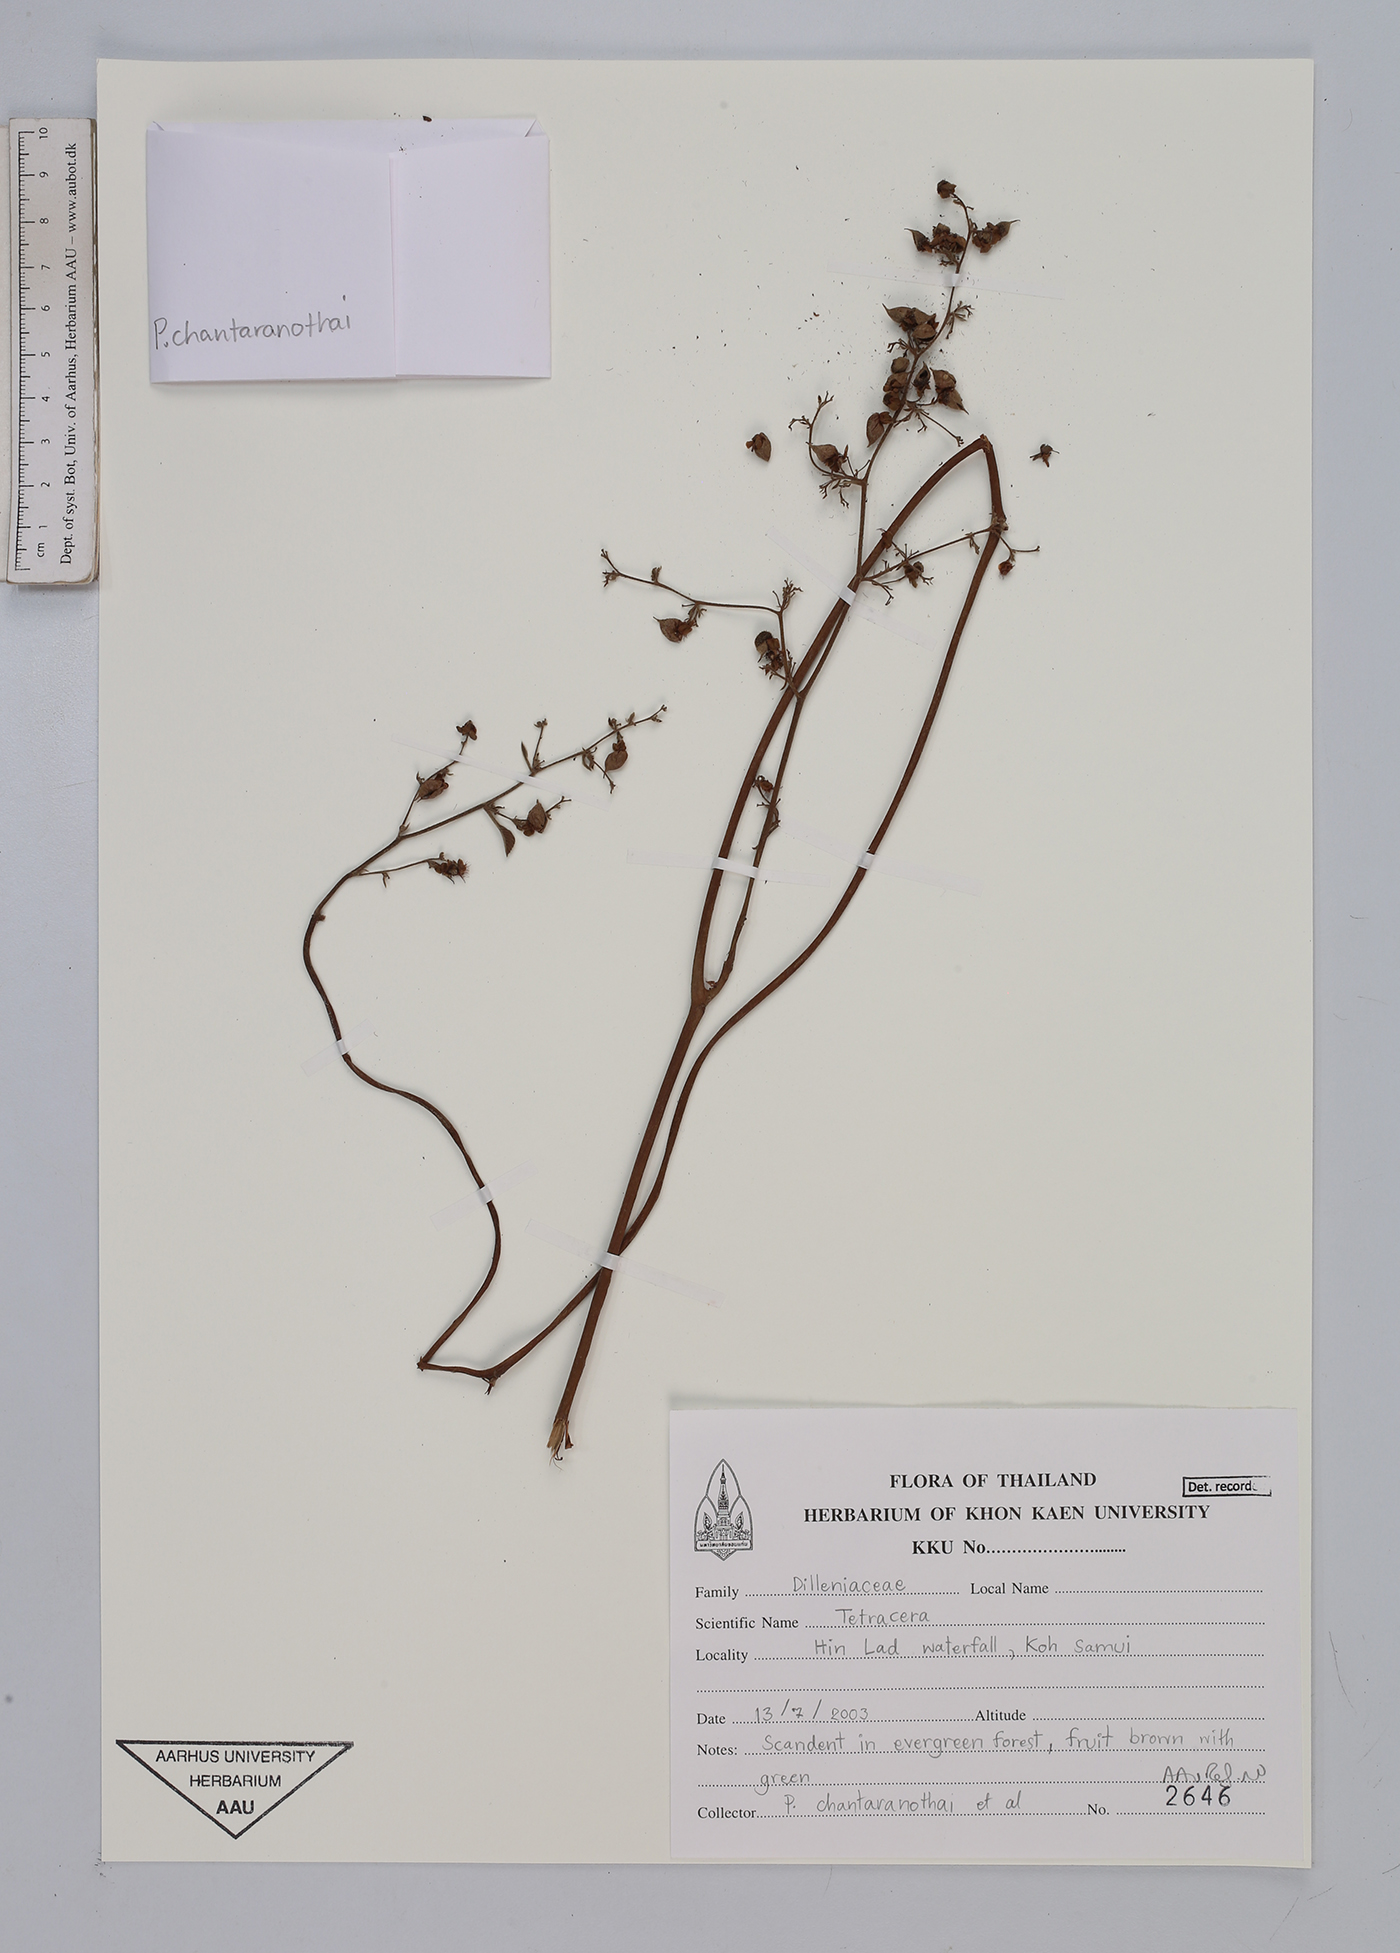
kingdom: Plantae
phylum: Tracheophyta
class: Magnoliopsida
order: Dilleniales
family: Dilleniaceae
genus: Tetracera
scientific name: Tetracera
